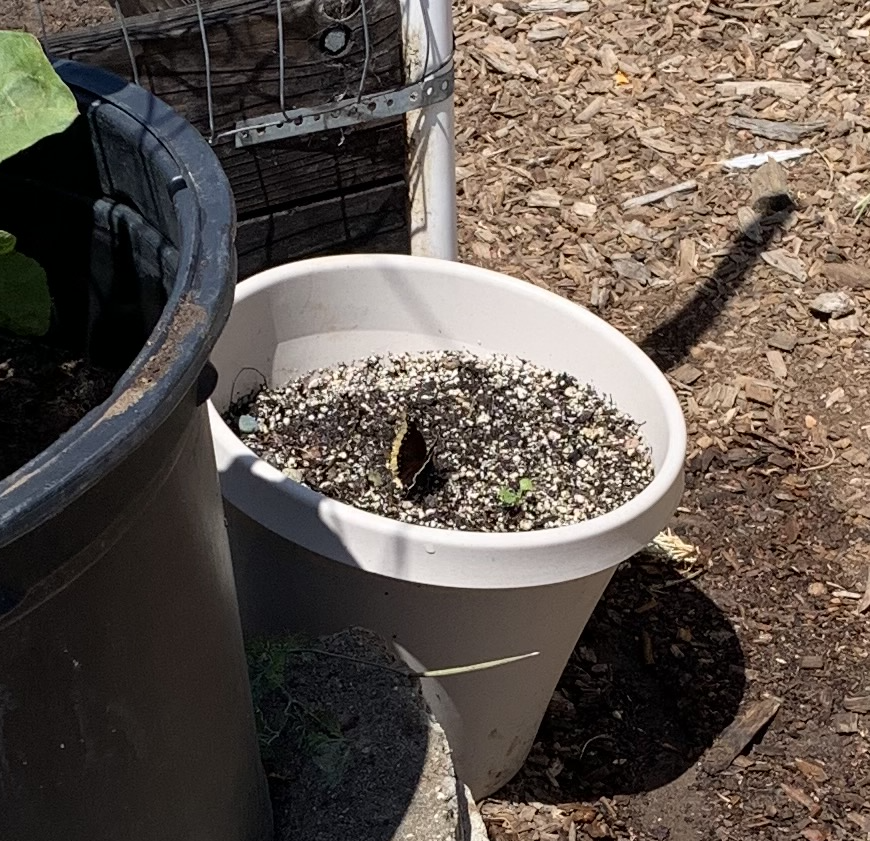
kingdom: Animalia
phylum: Arthropoda
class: Insecta
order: Lepidoptera
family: Nymphalidae
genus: Nymphalis
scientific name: Nymphalis antiopa
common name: Mourning Cloak
